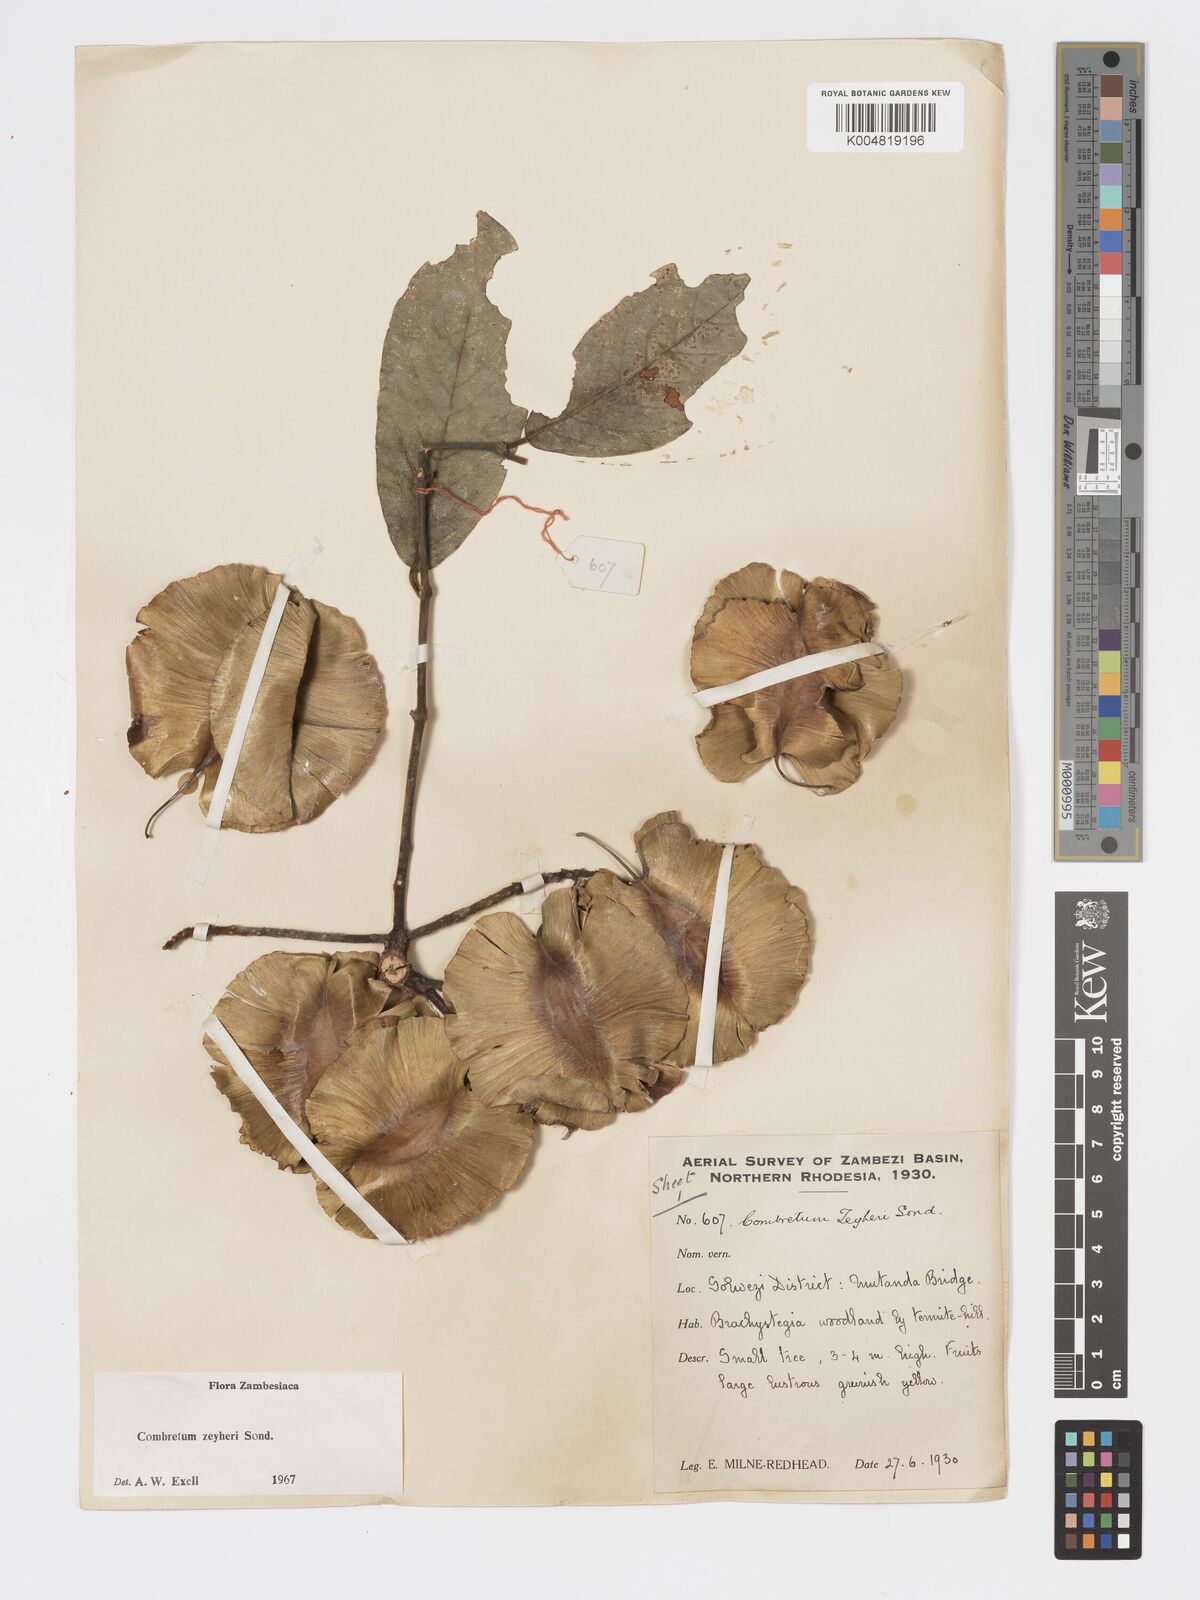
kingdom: Plantae
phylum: Tracheophyta
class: Magnoliopsida
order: Myrtales
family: Combretaceae
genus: Combretum
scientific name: Combretum zeyheri
